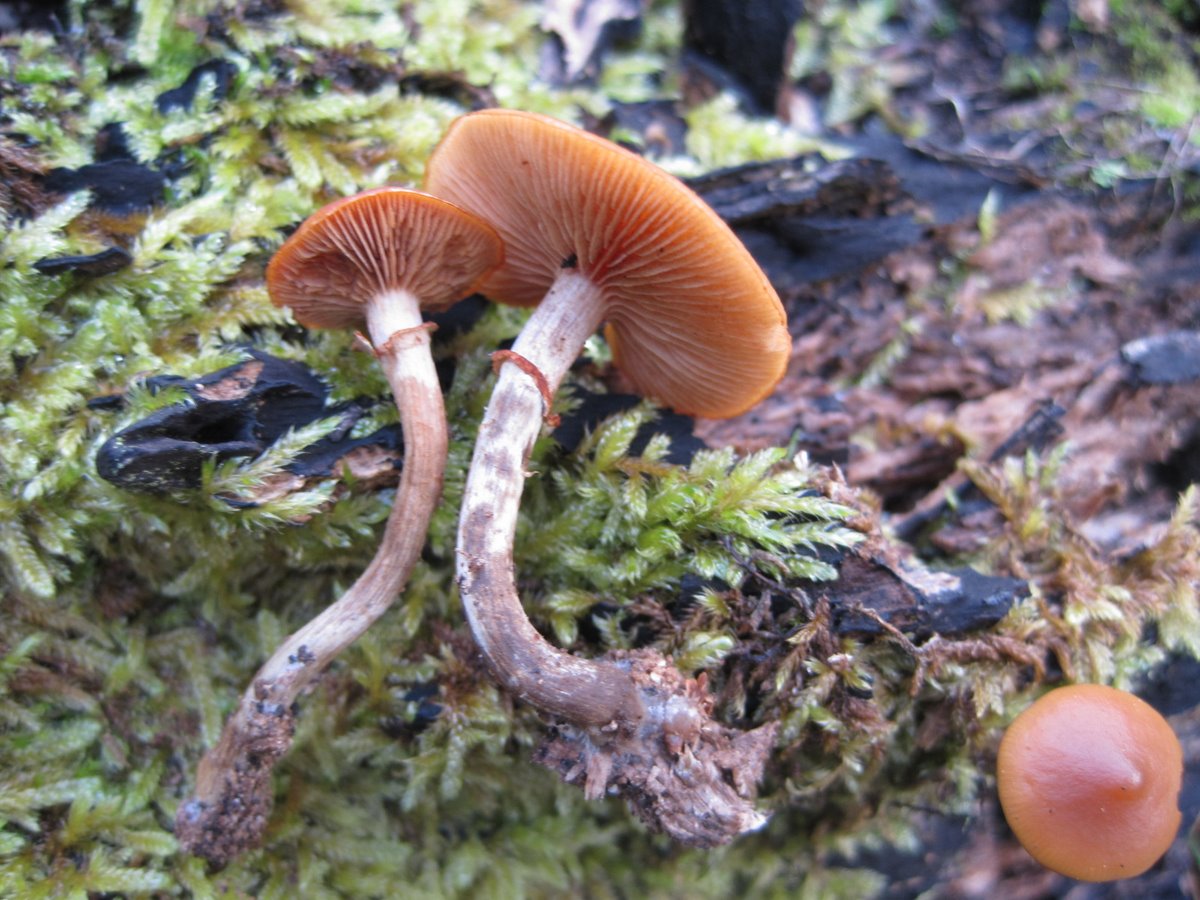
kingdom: Fungi
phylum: Basidiomycota
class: Agaricomycetes
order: Agaricales
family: Hymenogastraceae
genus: Galerina
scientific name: Galerina marginata
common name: randbæltet hjelmhat
